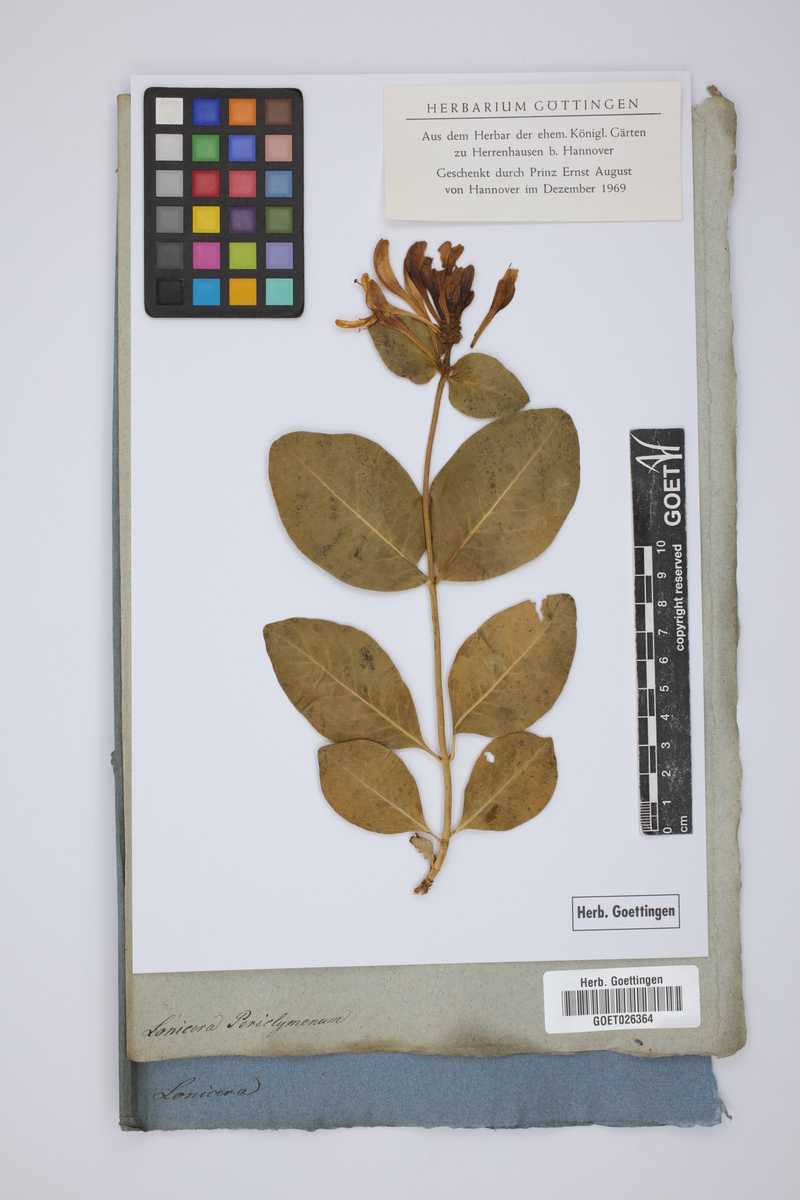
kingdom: Plantae
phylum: Tracheophyta
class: Magnoliopsida
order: Dipsacales
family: Caprifoliaceae
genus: Lonicera
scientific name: Lonicera periclymenum
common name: European honeysuckle
